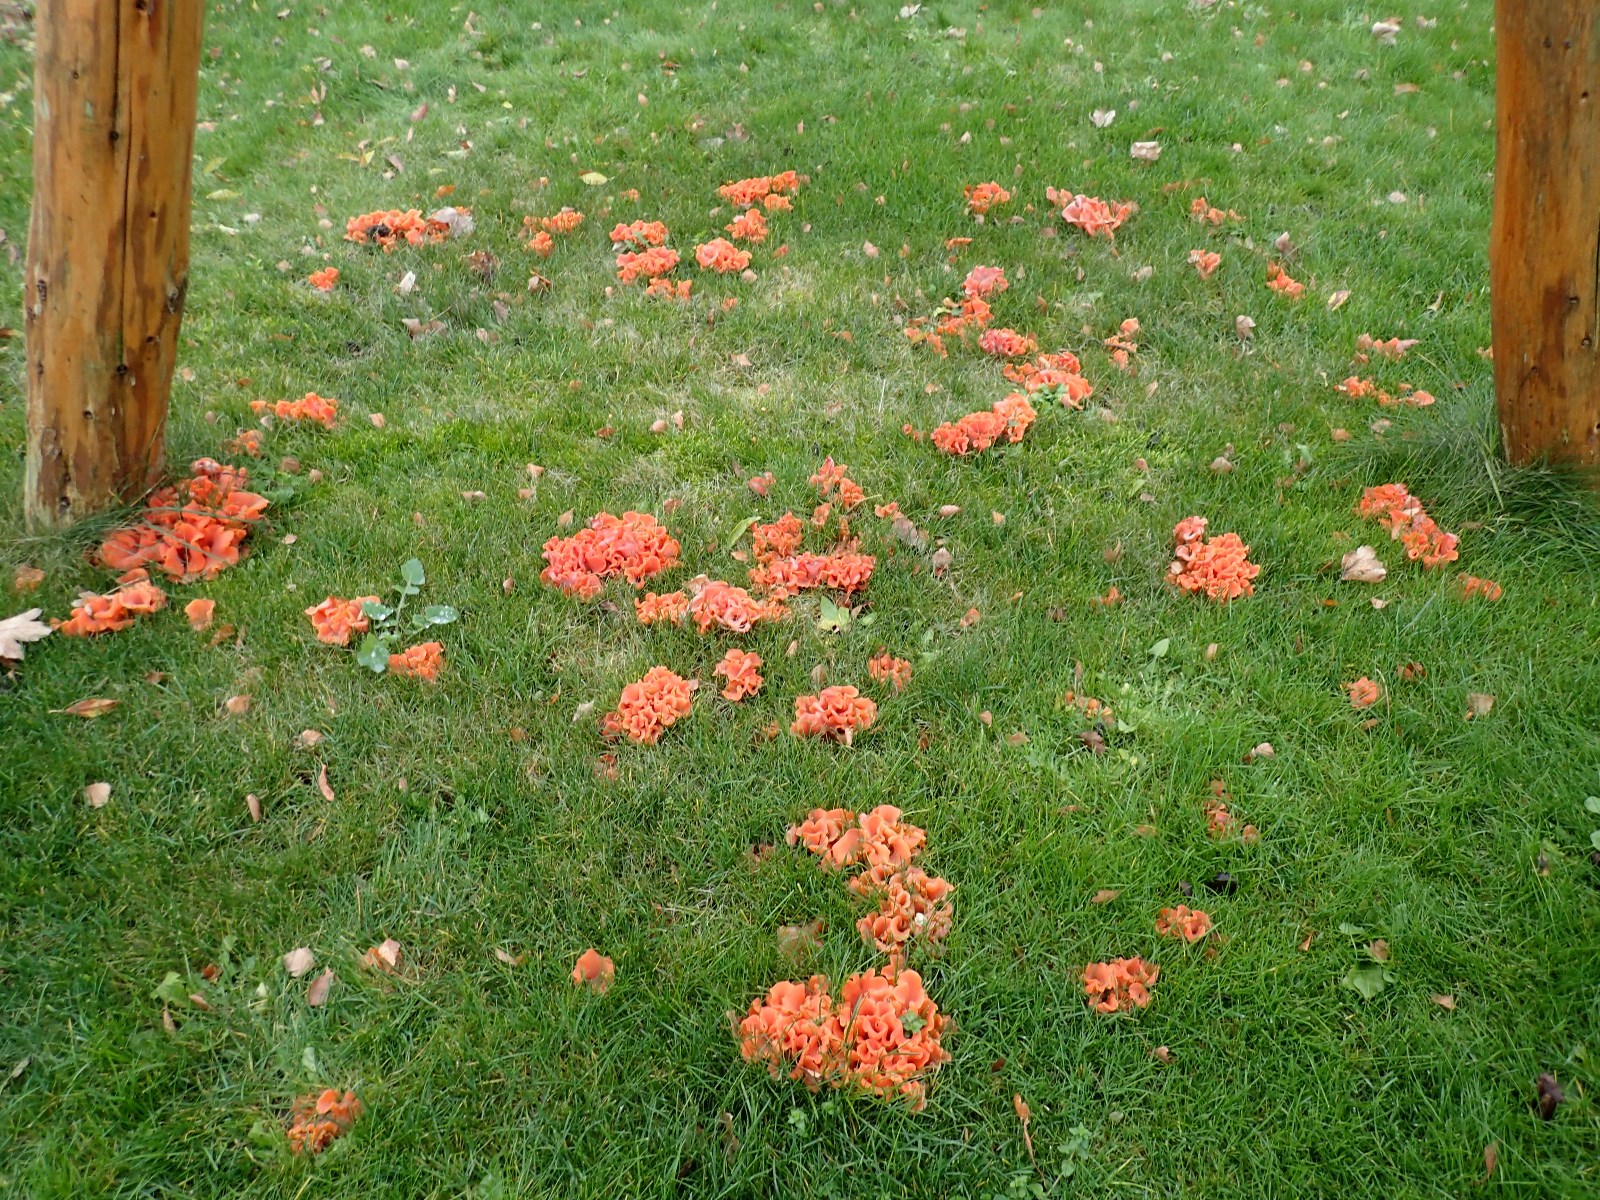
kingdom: Fungi
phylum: Basidiomycota
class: Agaricomycetes
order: Auriculariales
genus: Guepinia
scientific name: Guepinia helvelloides
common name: bævretunge
